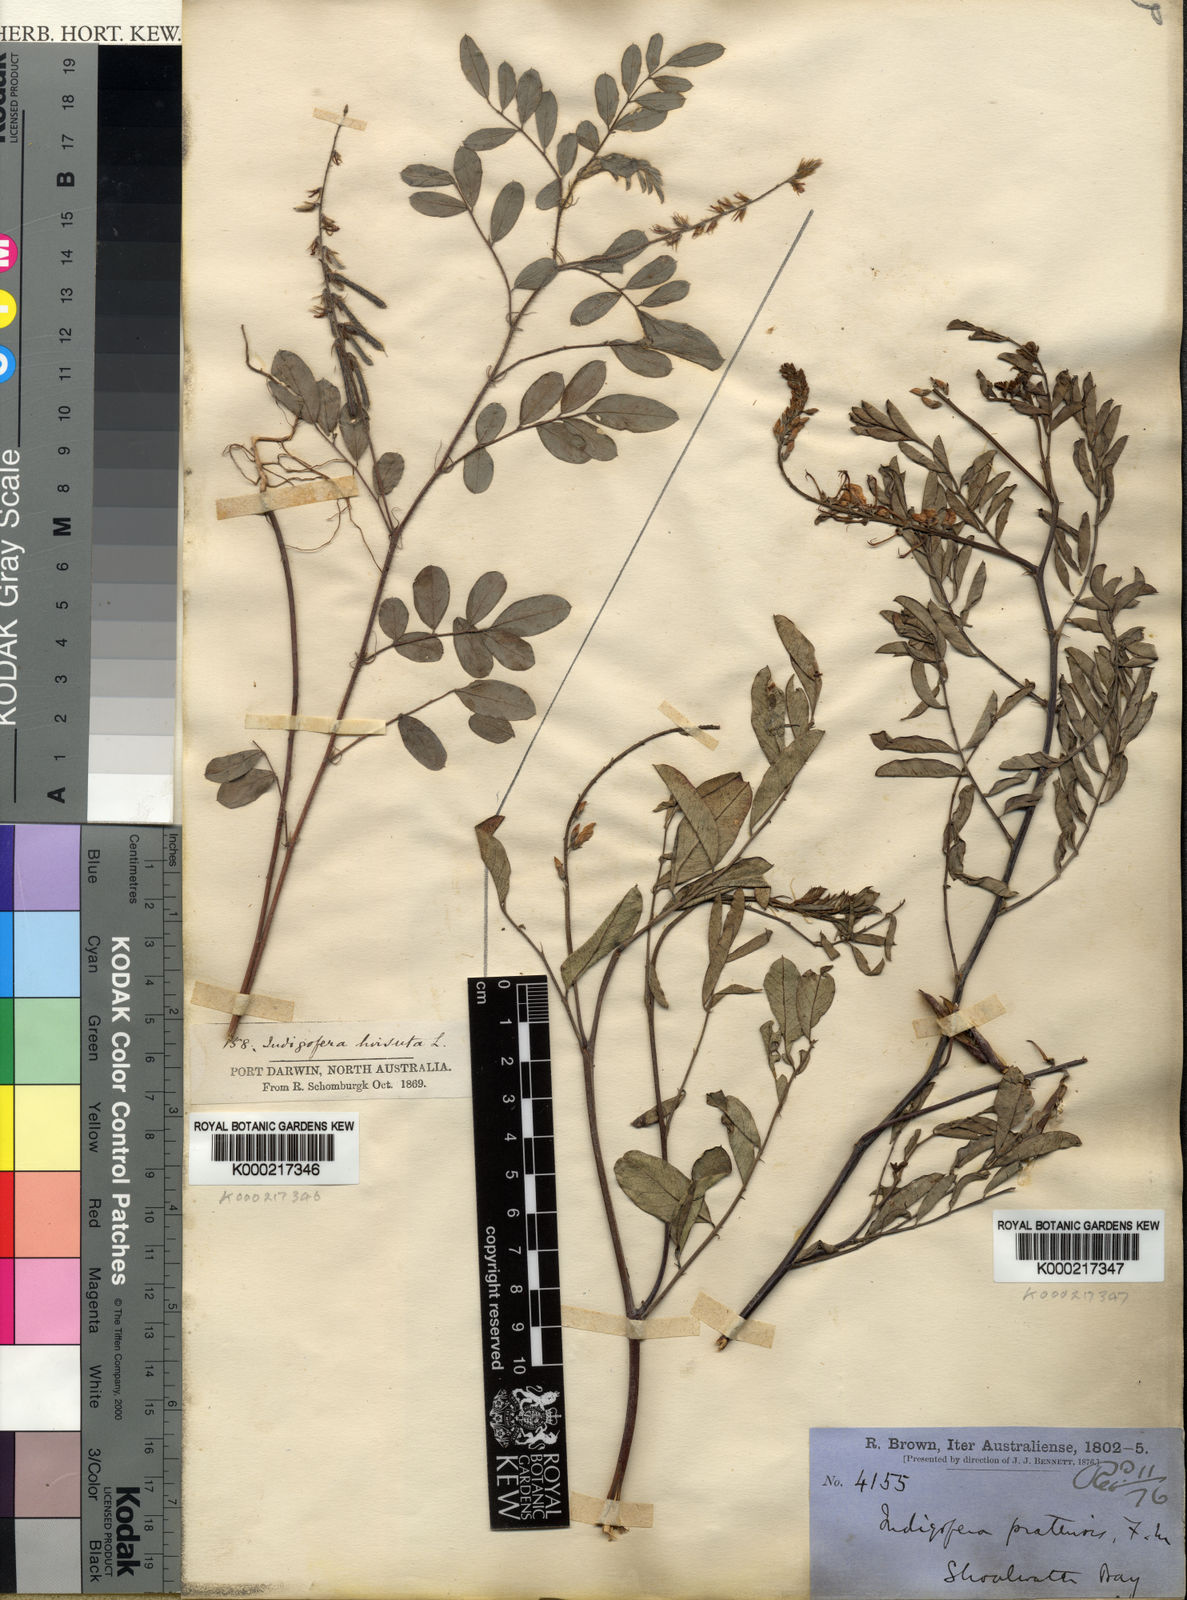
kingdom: Plantae
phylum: Tracheophyta
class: Magnoliopsida
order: Fabales
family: Fabaceae
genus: Indigofera
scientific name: Indigofera pratensis
